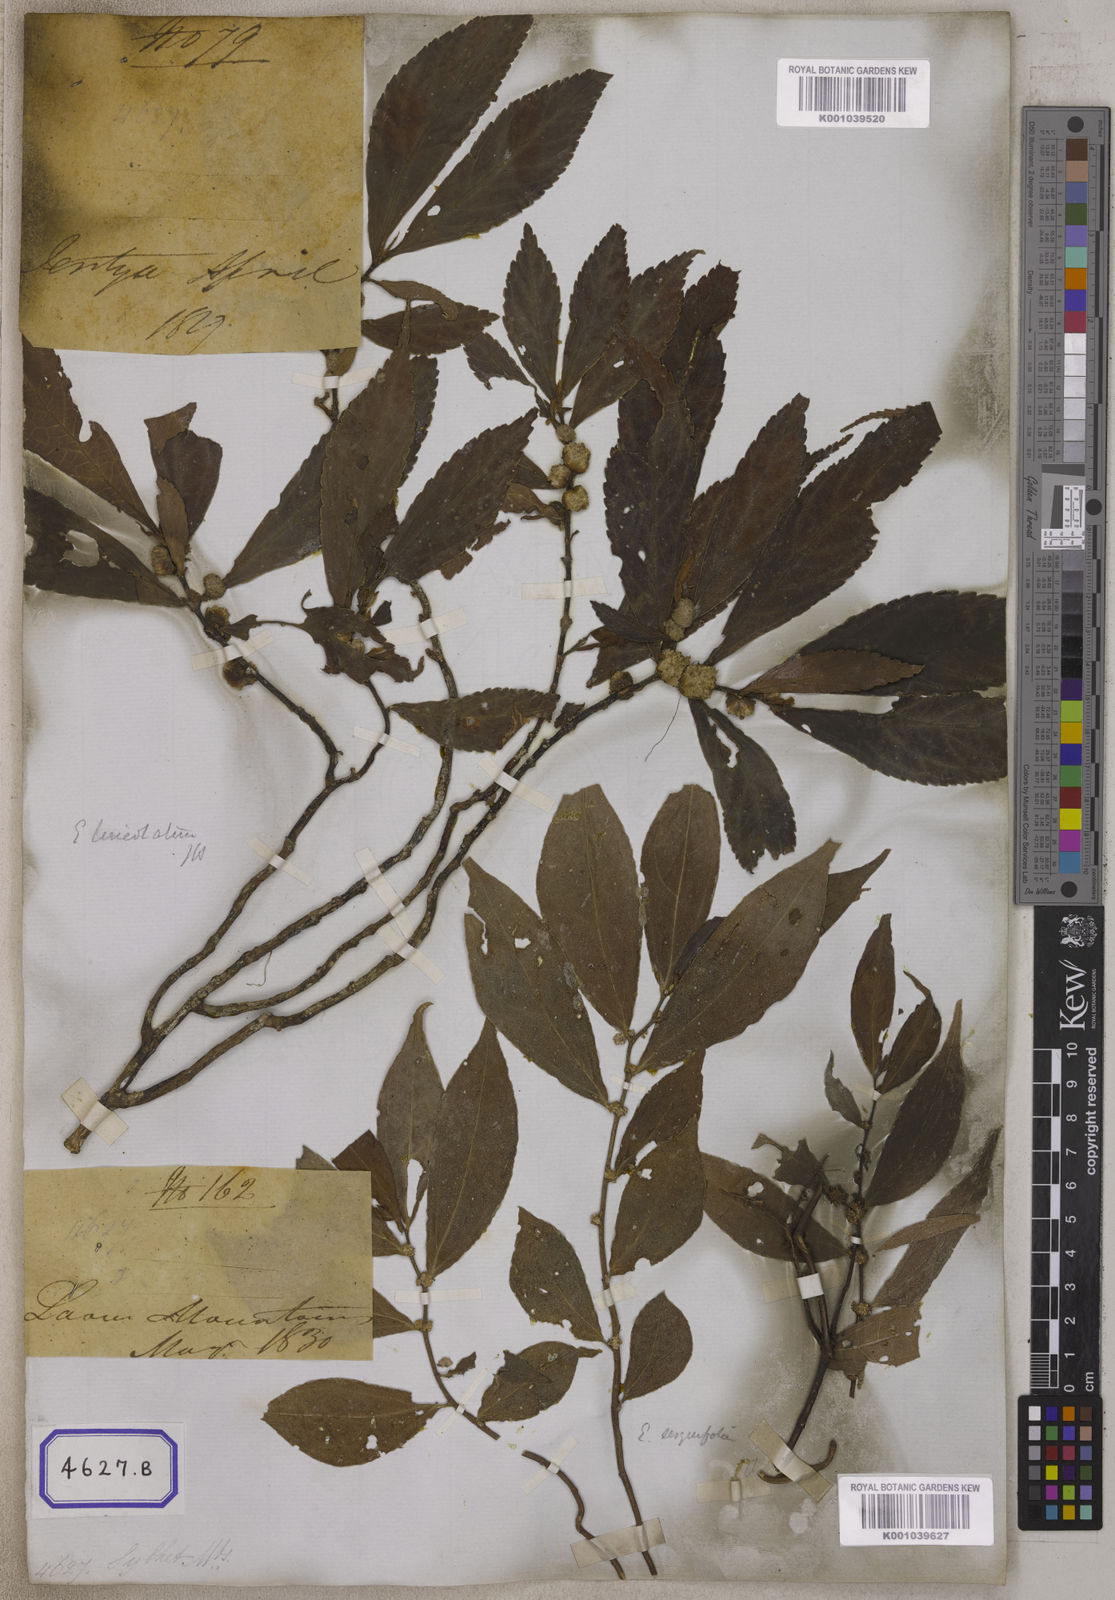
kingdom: Plantae
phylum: Tracheophyta
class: Magnoliopsida
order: Rosales
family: Urticaceae
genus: Procris
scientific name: Procris
